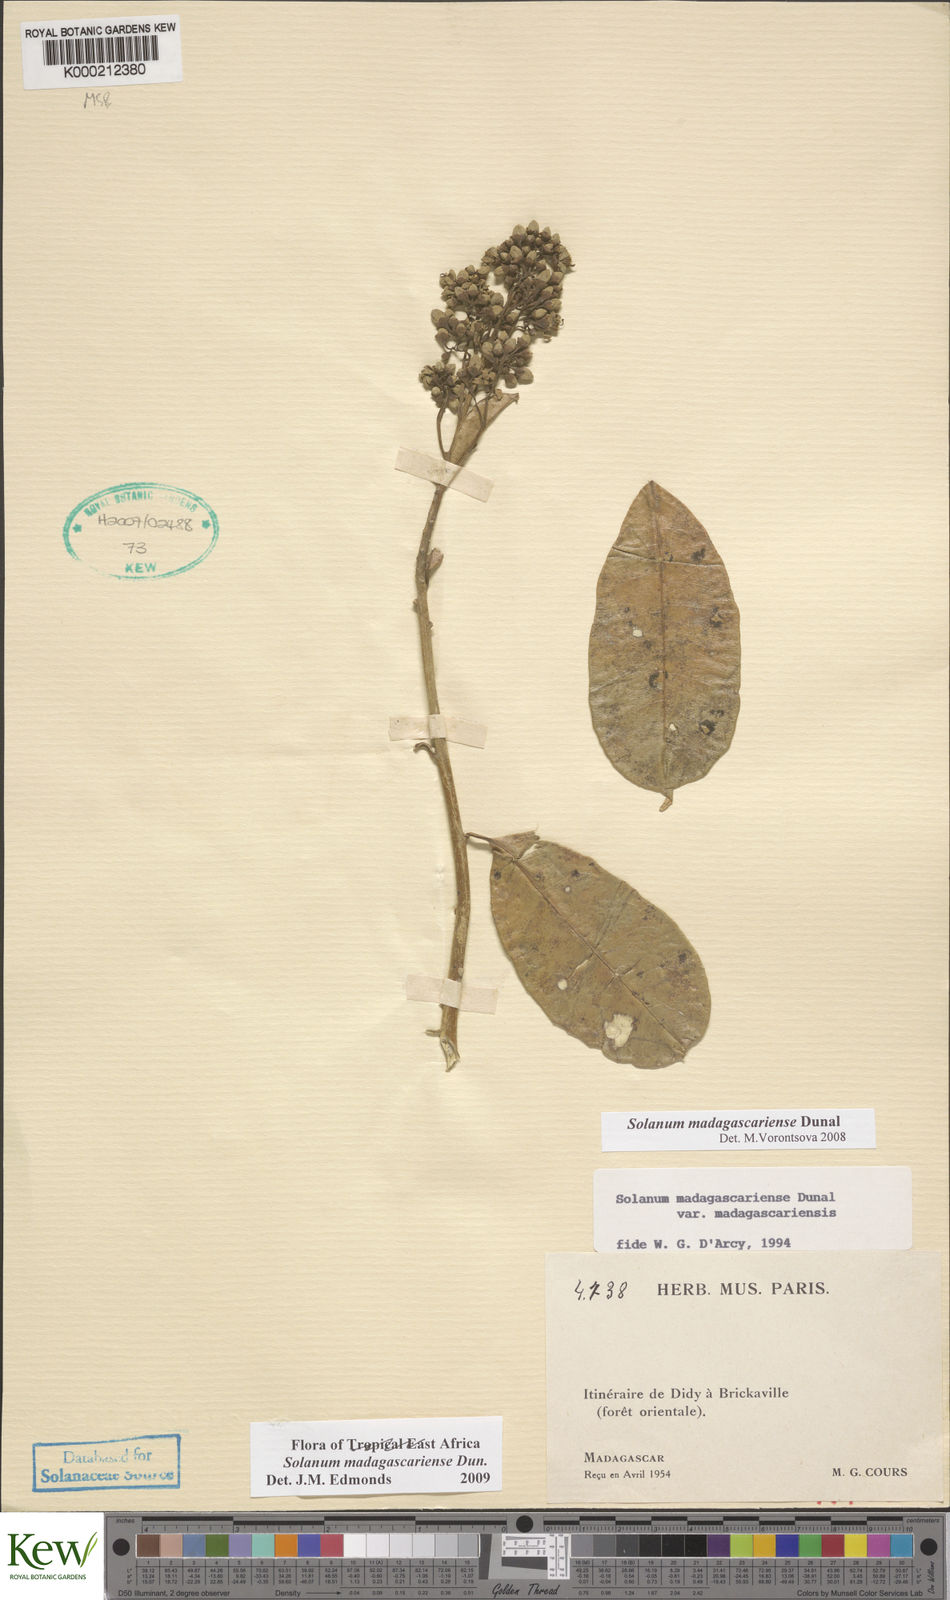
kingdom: Plantae
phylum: Tracheophyta
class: Magnoliopsida
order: Solanales
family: Solanaceae
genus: Solanum
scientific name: Solanum madagascariense
